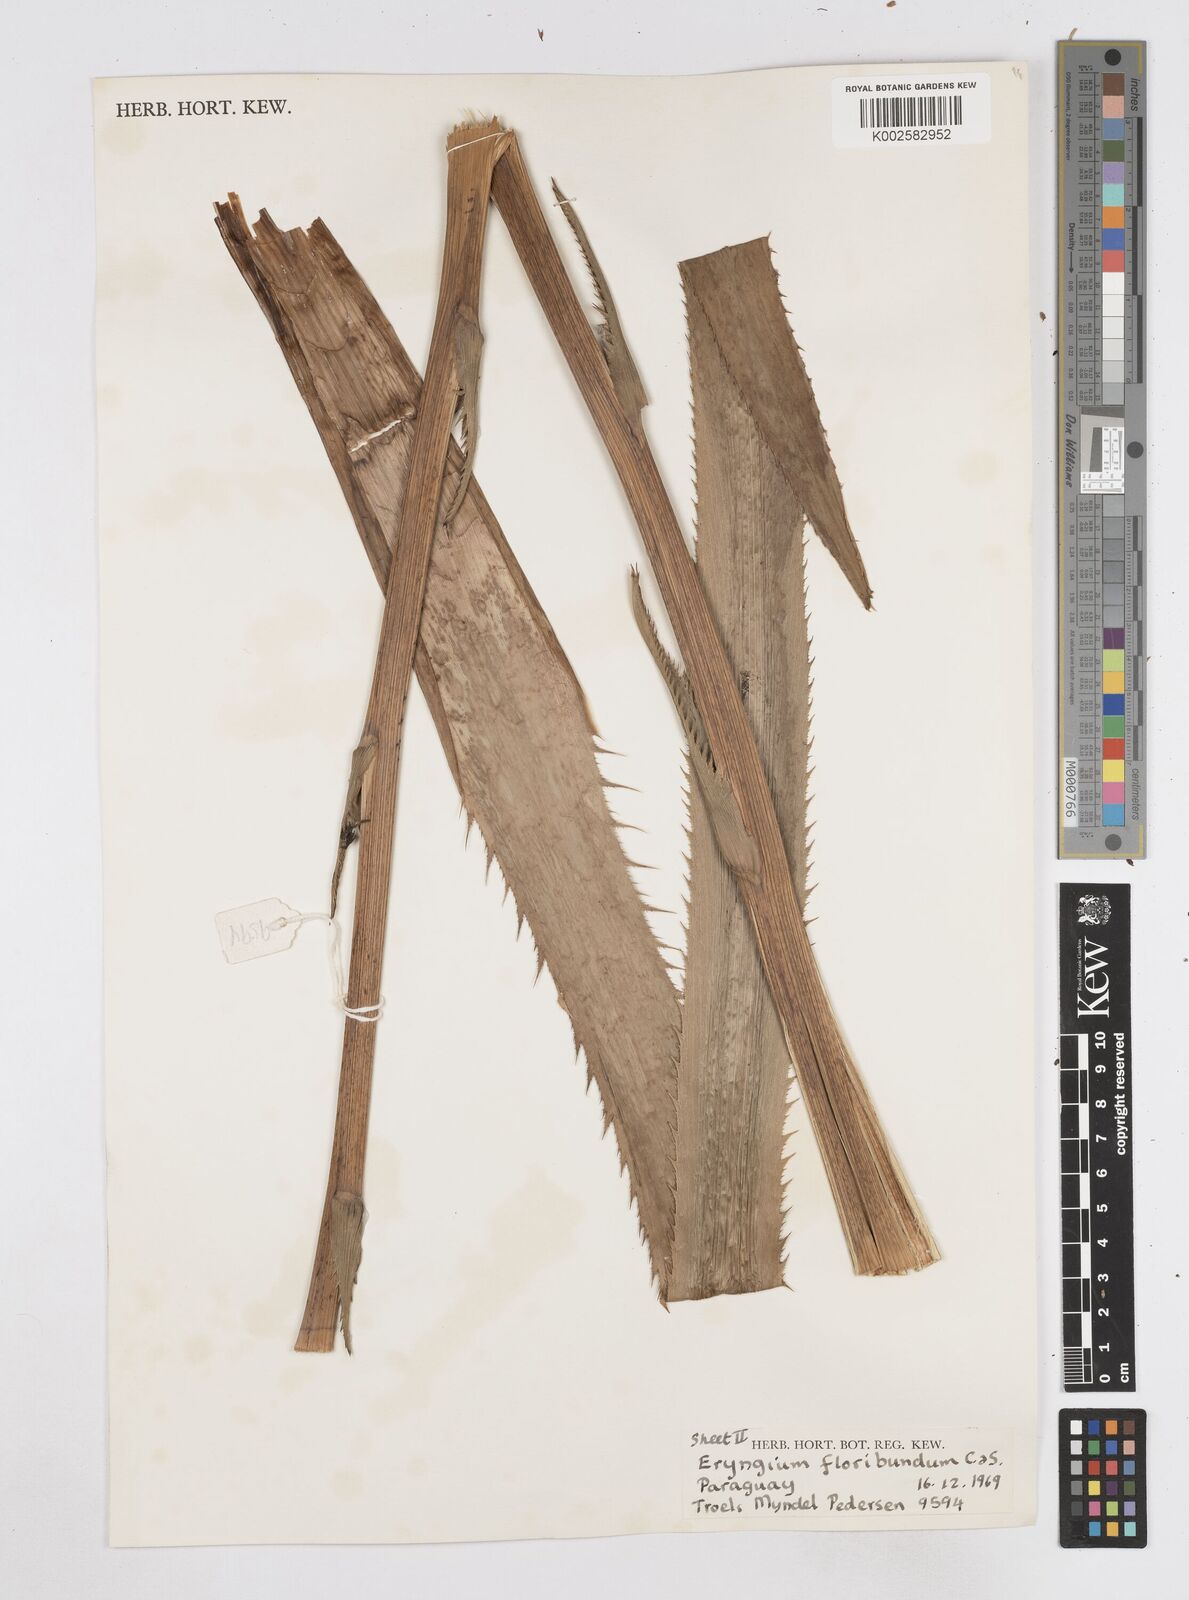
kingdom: Plantae
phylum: Tracheophyta
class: Magnoliopsida
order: Apiales
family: Apiaceae
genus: Eryngium
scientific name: Eryngium floribundum
